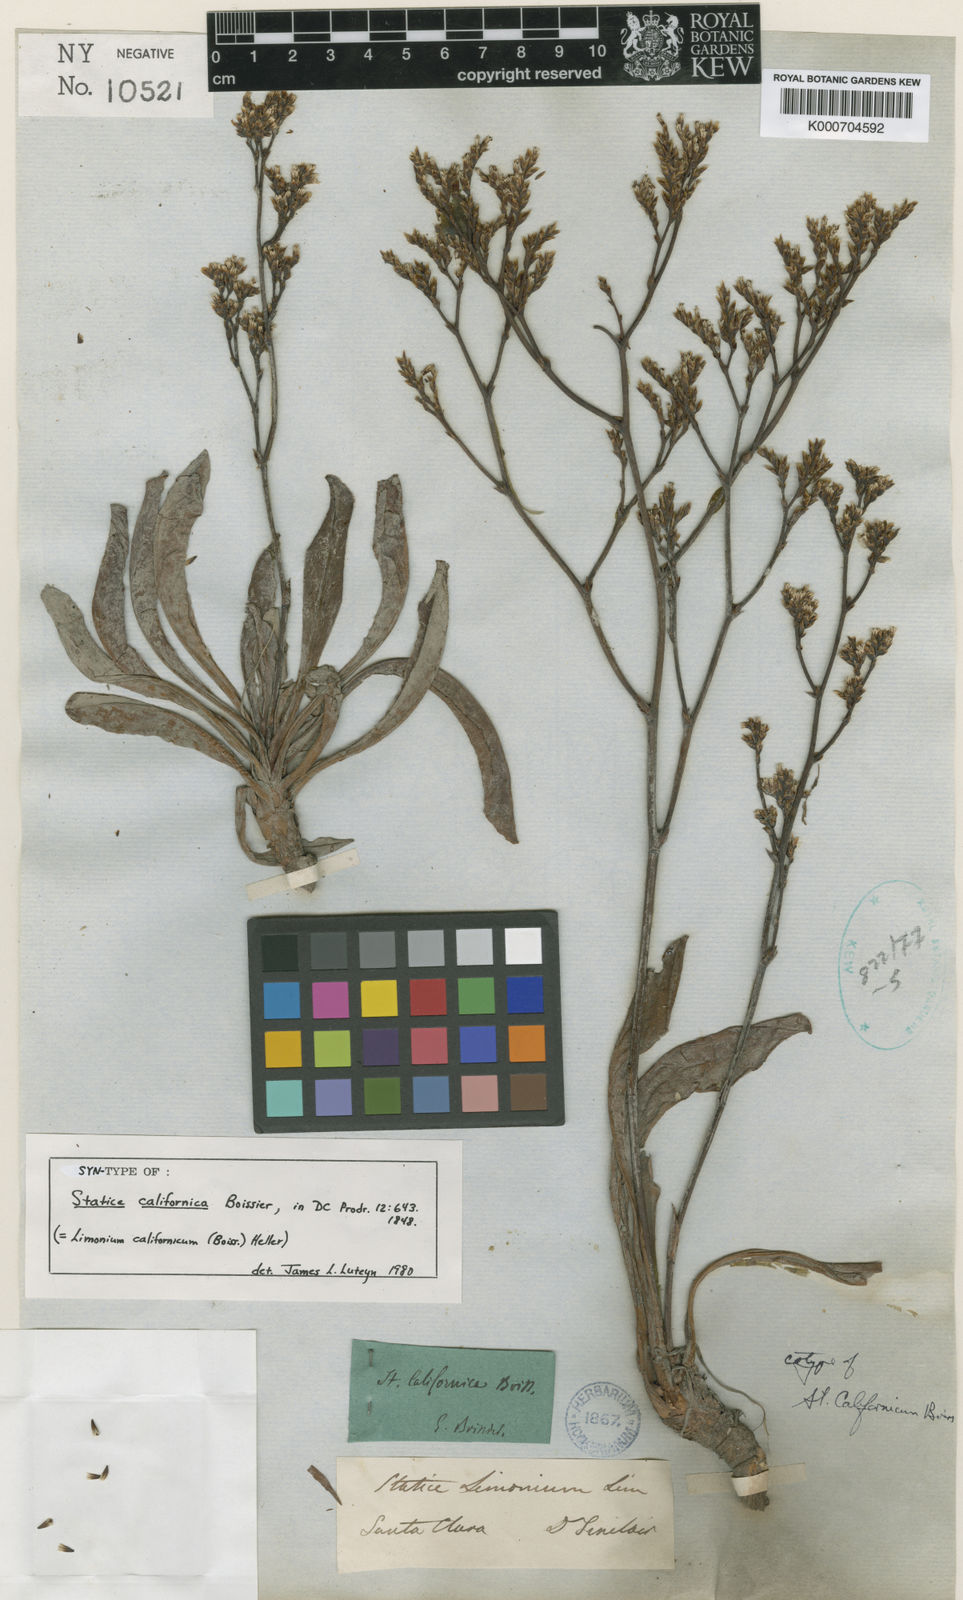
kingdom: Plantae
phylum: Tracheophyta
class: Magnoliopsida
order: Caryophyllales
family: Plumbaginaceae
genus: Limonium
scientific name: Limonium californicum
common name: Marsh-rosemary
